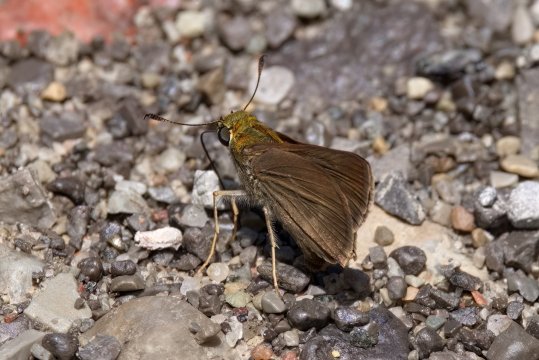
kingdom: Animalia
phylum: Arthropoda
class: Insecta
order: Lepidoptera
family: Hesperiidae
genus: Euphyes
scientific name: Euphyes vestris
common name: Dun Skipper
